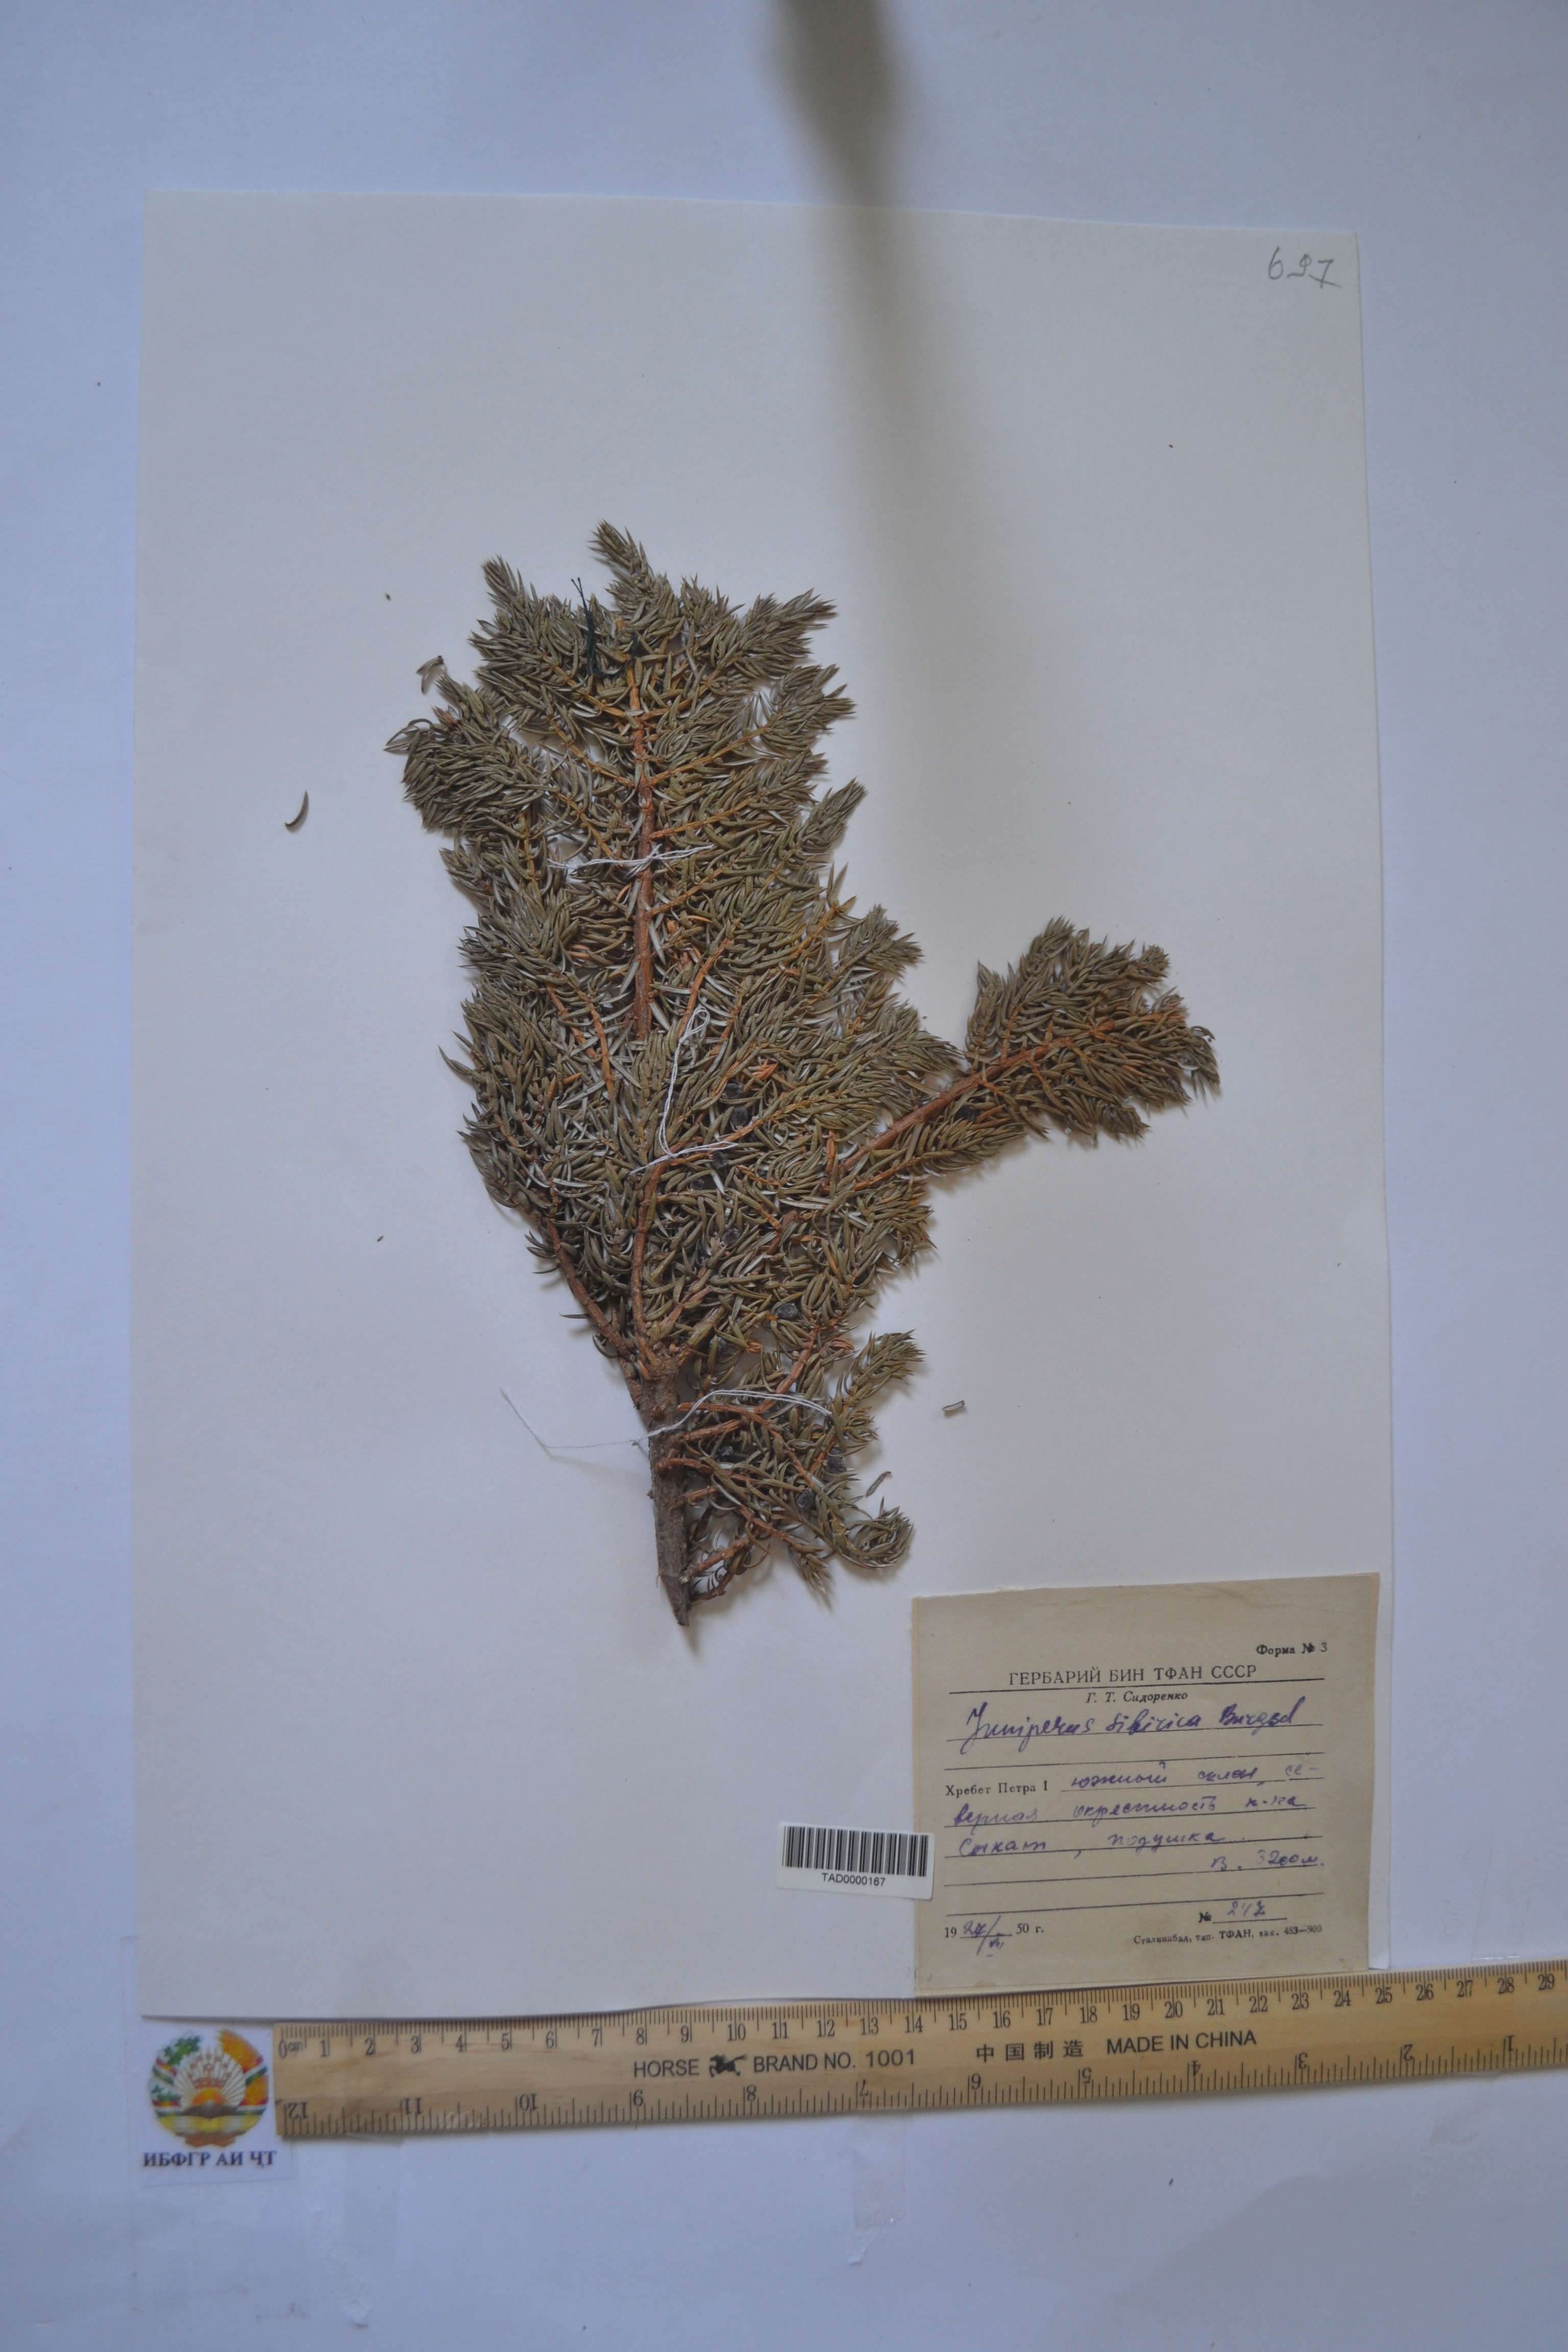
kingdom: Plantae
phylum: Tracheophyta
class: Pinopsida
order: Pinales
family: Cupressaceae
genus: Juniperus
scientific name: Juniperus communis
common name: Common juniper
